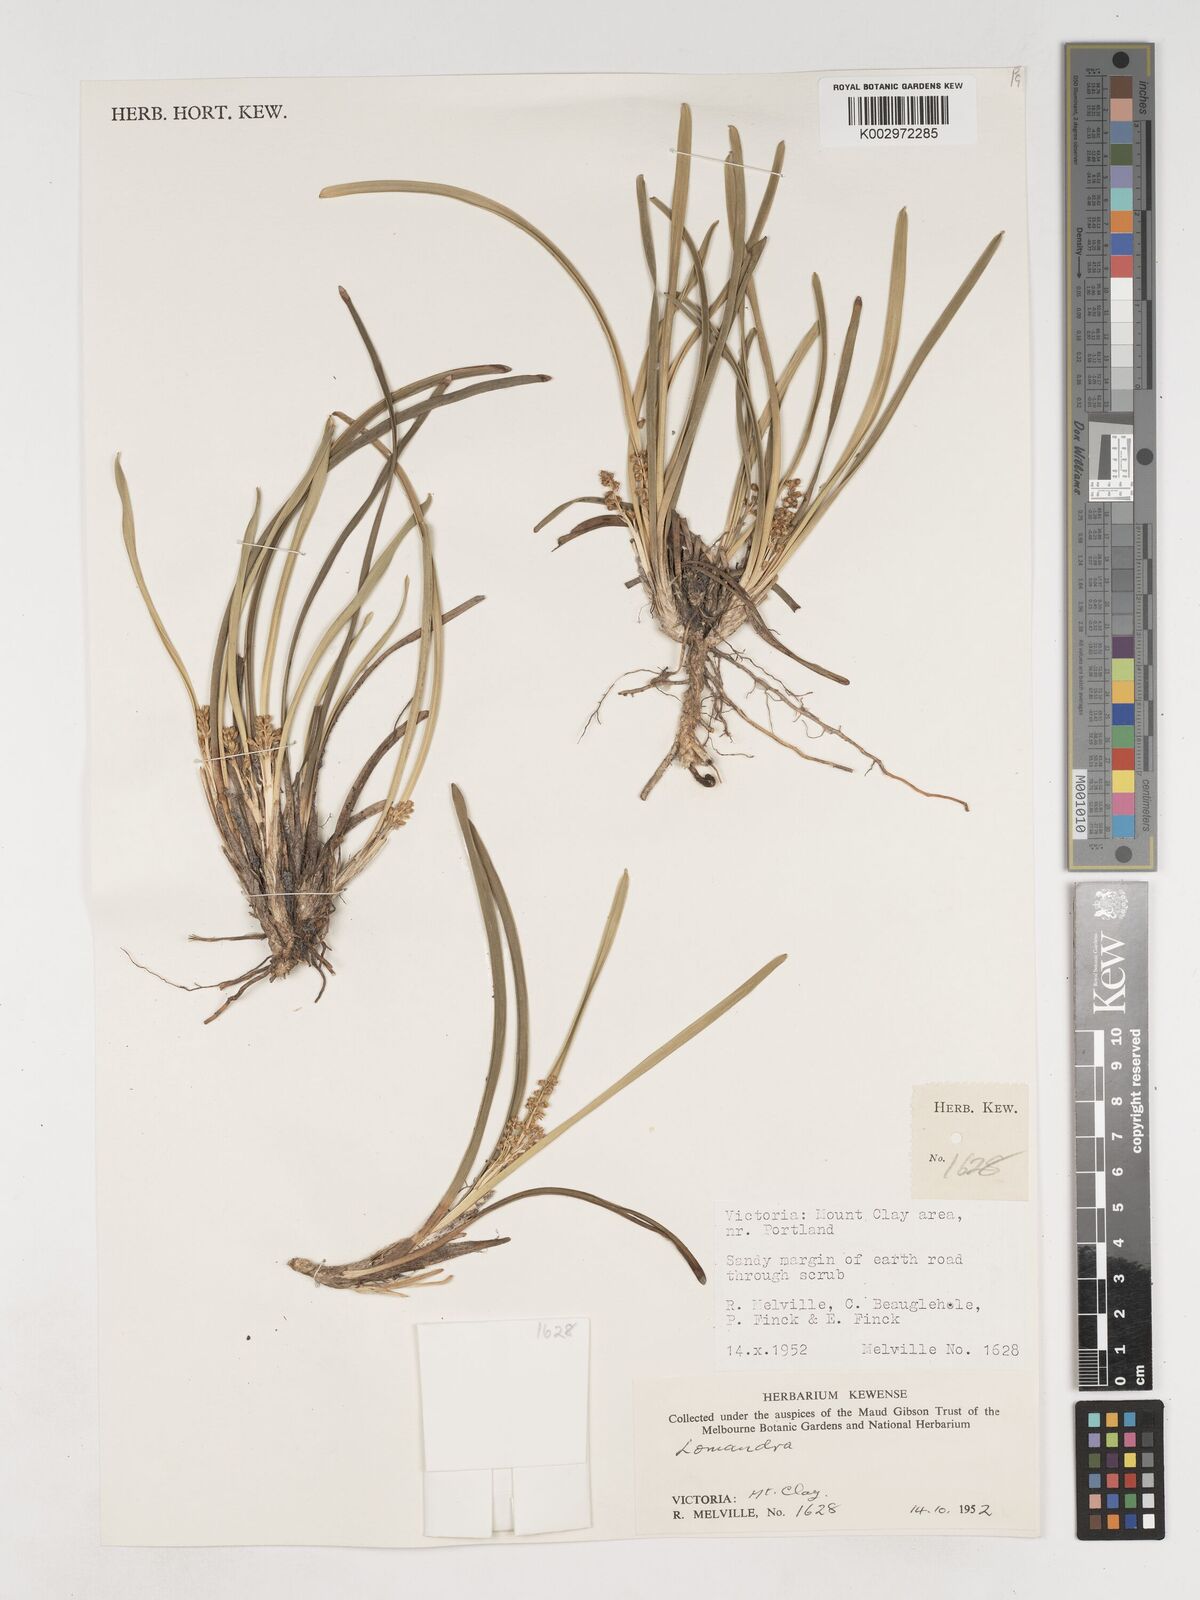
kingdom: Plantae
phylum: Tracheophyta
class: Liliopsida
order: Asparagales
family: Asparagaceae
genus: Lomandra
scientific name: Lomandra
